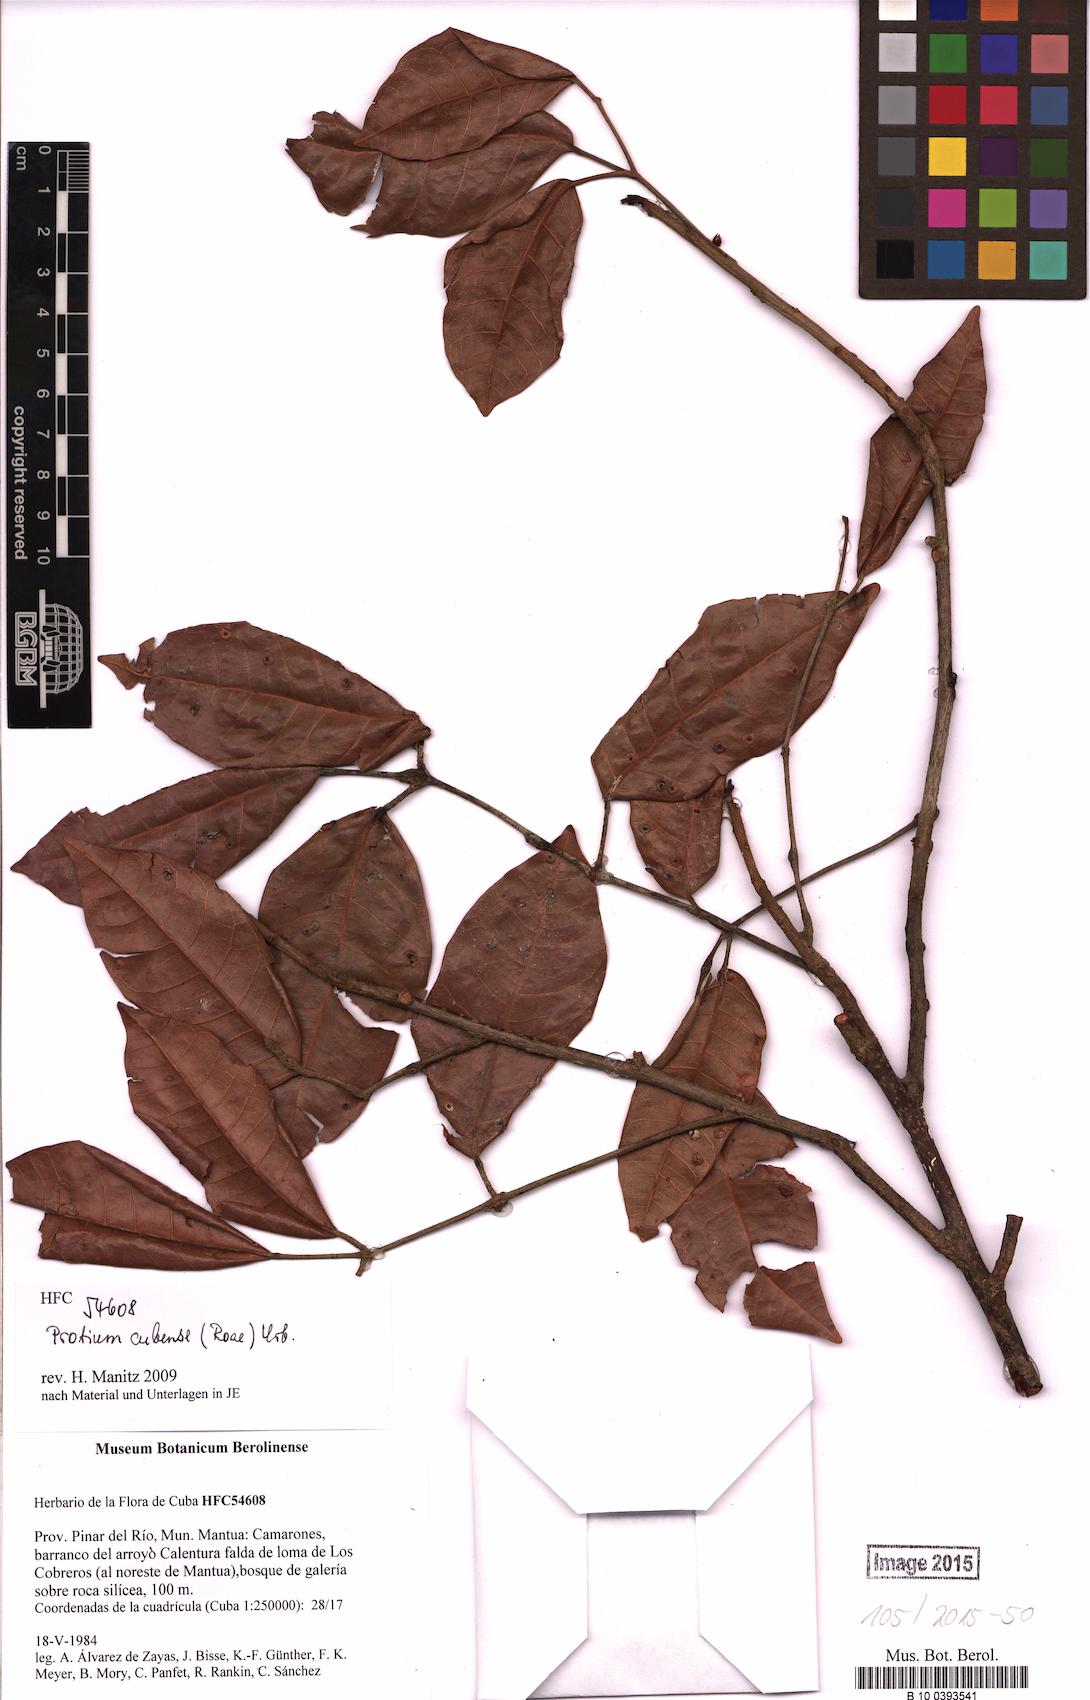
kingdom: Plantae
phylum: Tracheophyta
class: Magnoliopsida
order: Sapindales
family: Burseraceae
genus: Protium
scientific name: Protium cubense
